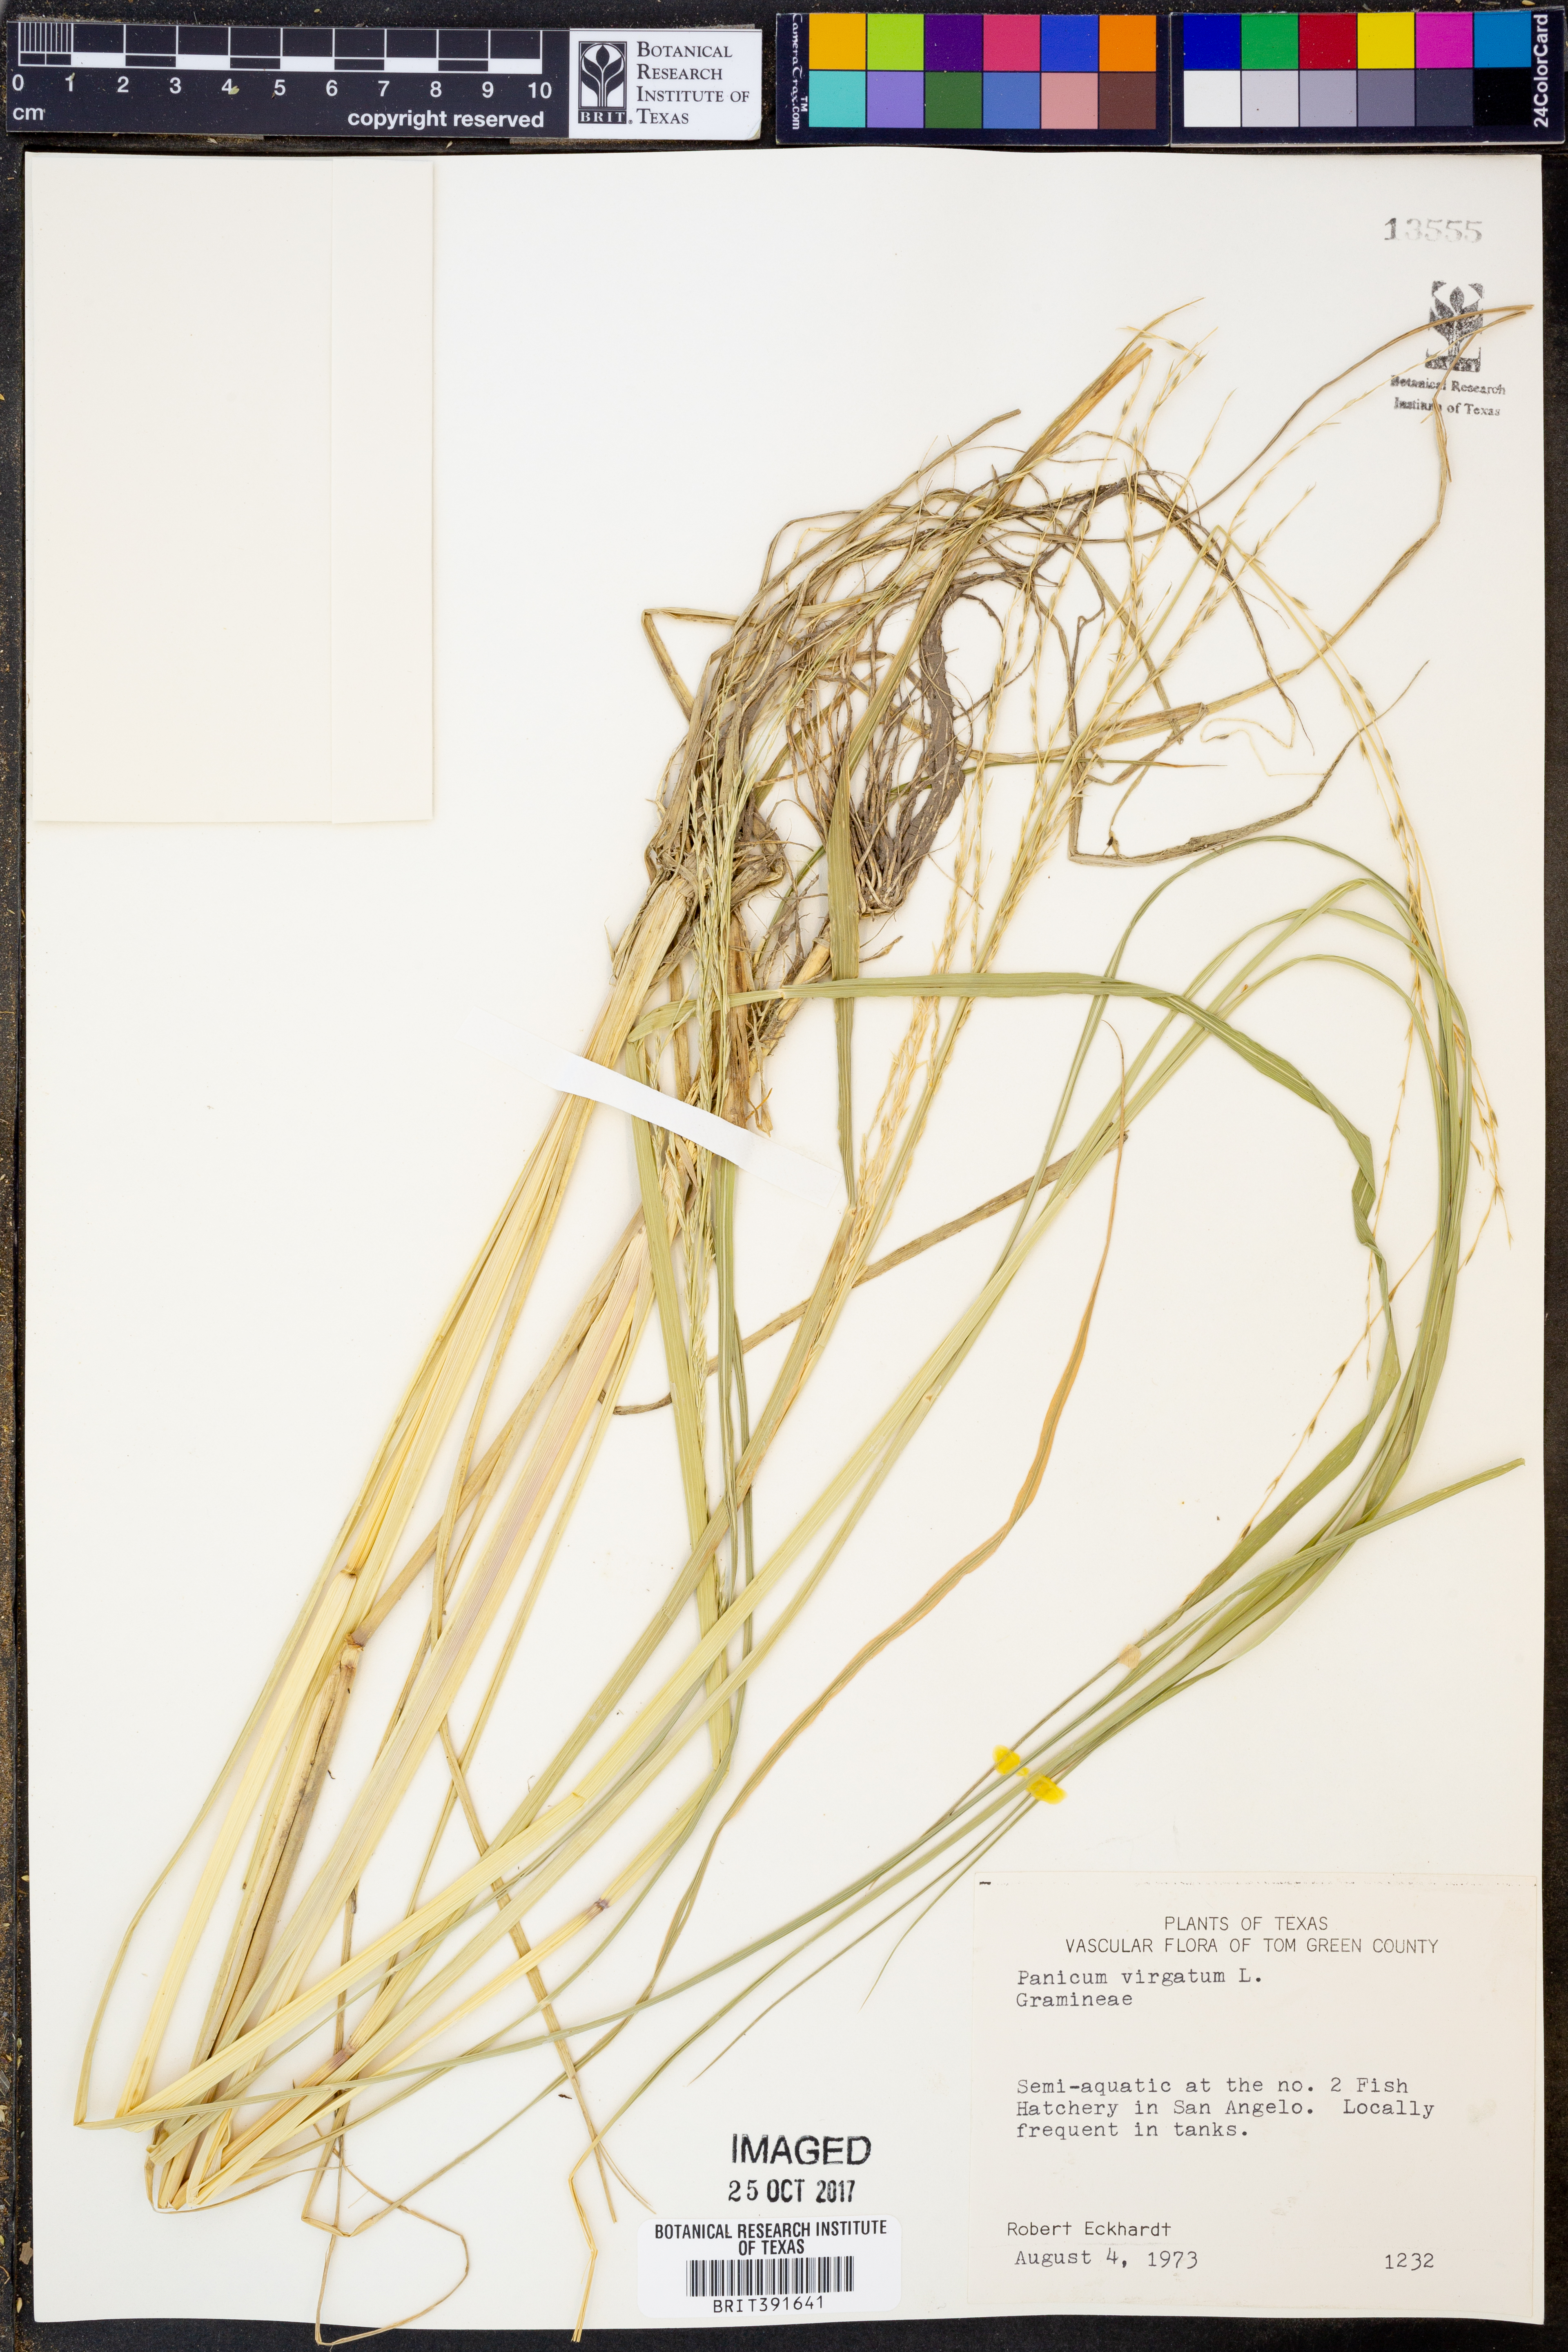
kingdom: Plantae
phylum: Tracheophyta
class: Liliopsida
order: Poales
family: Poaceae
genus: Panicum
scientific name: Panicum virgatum
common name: Switchgrass
